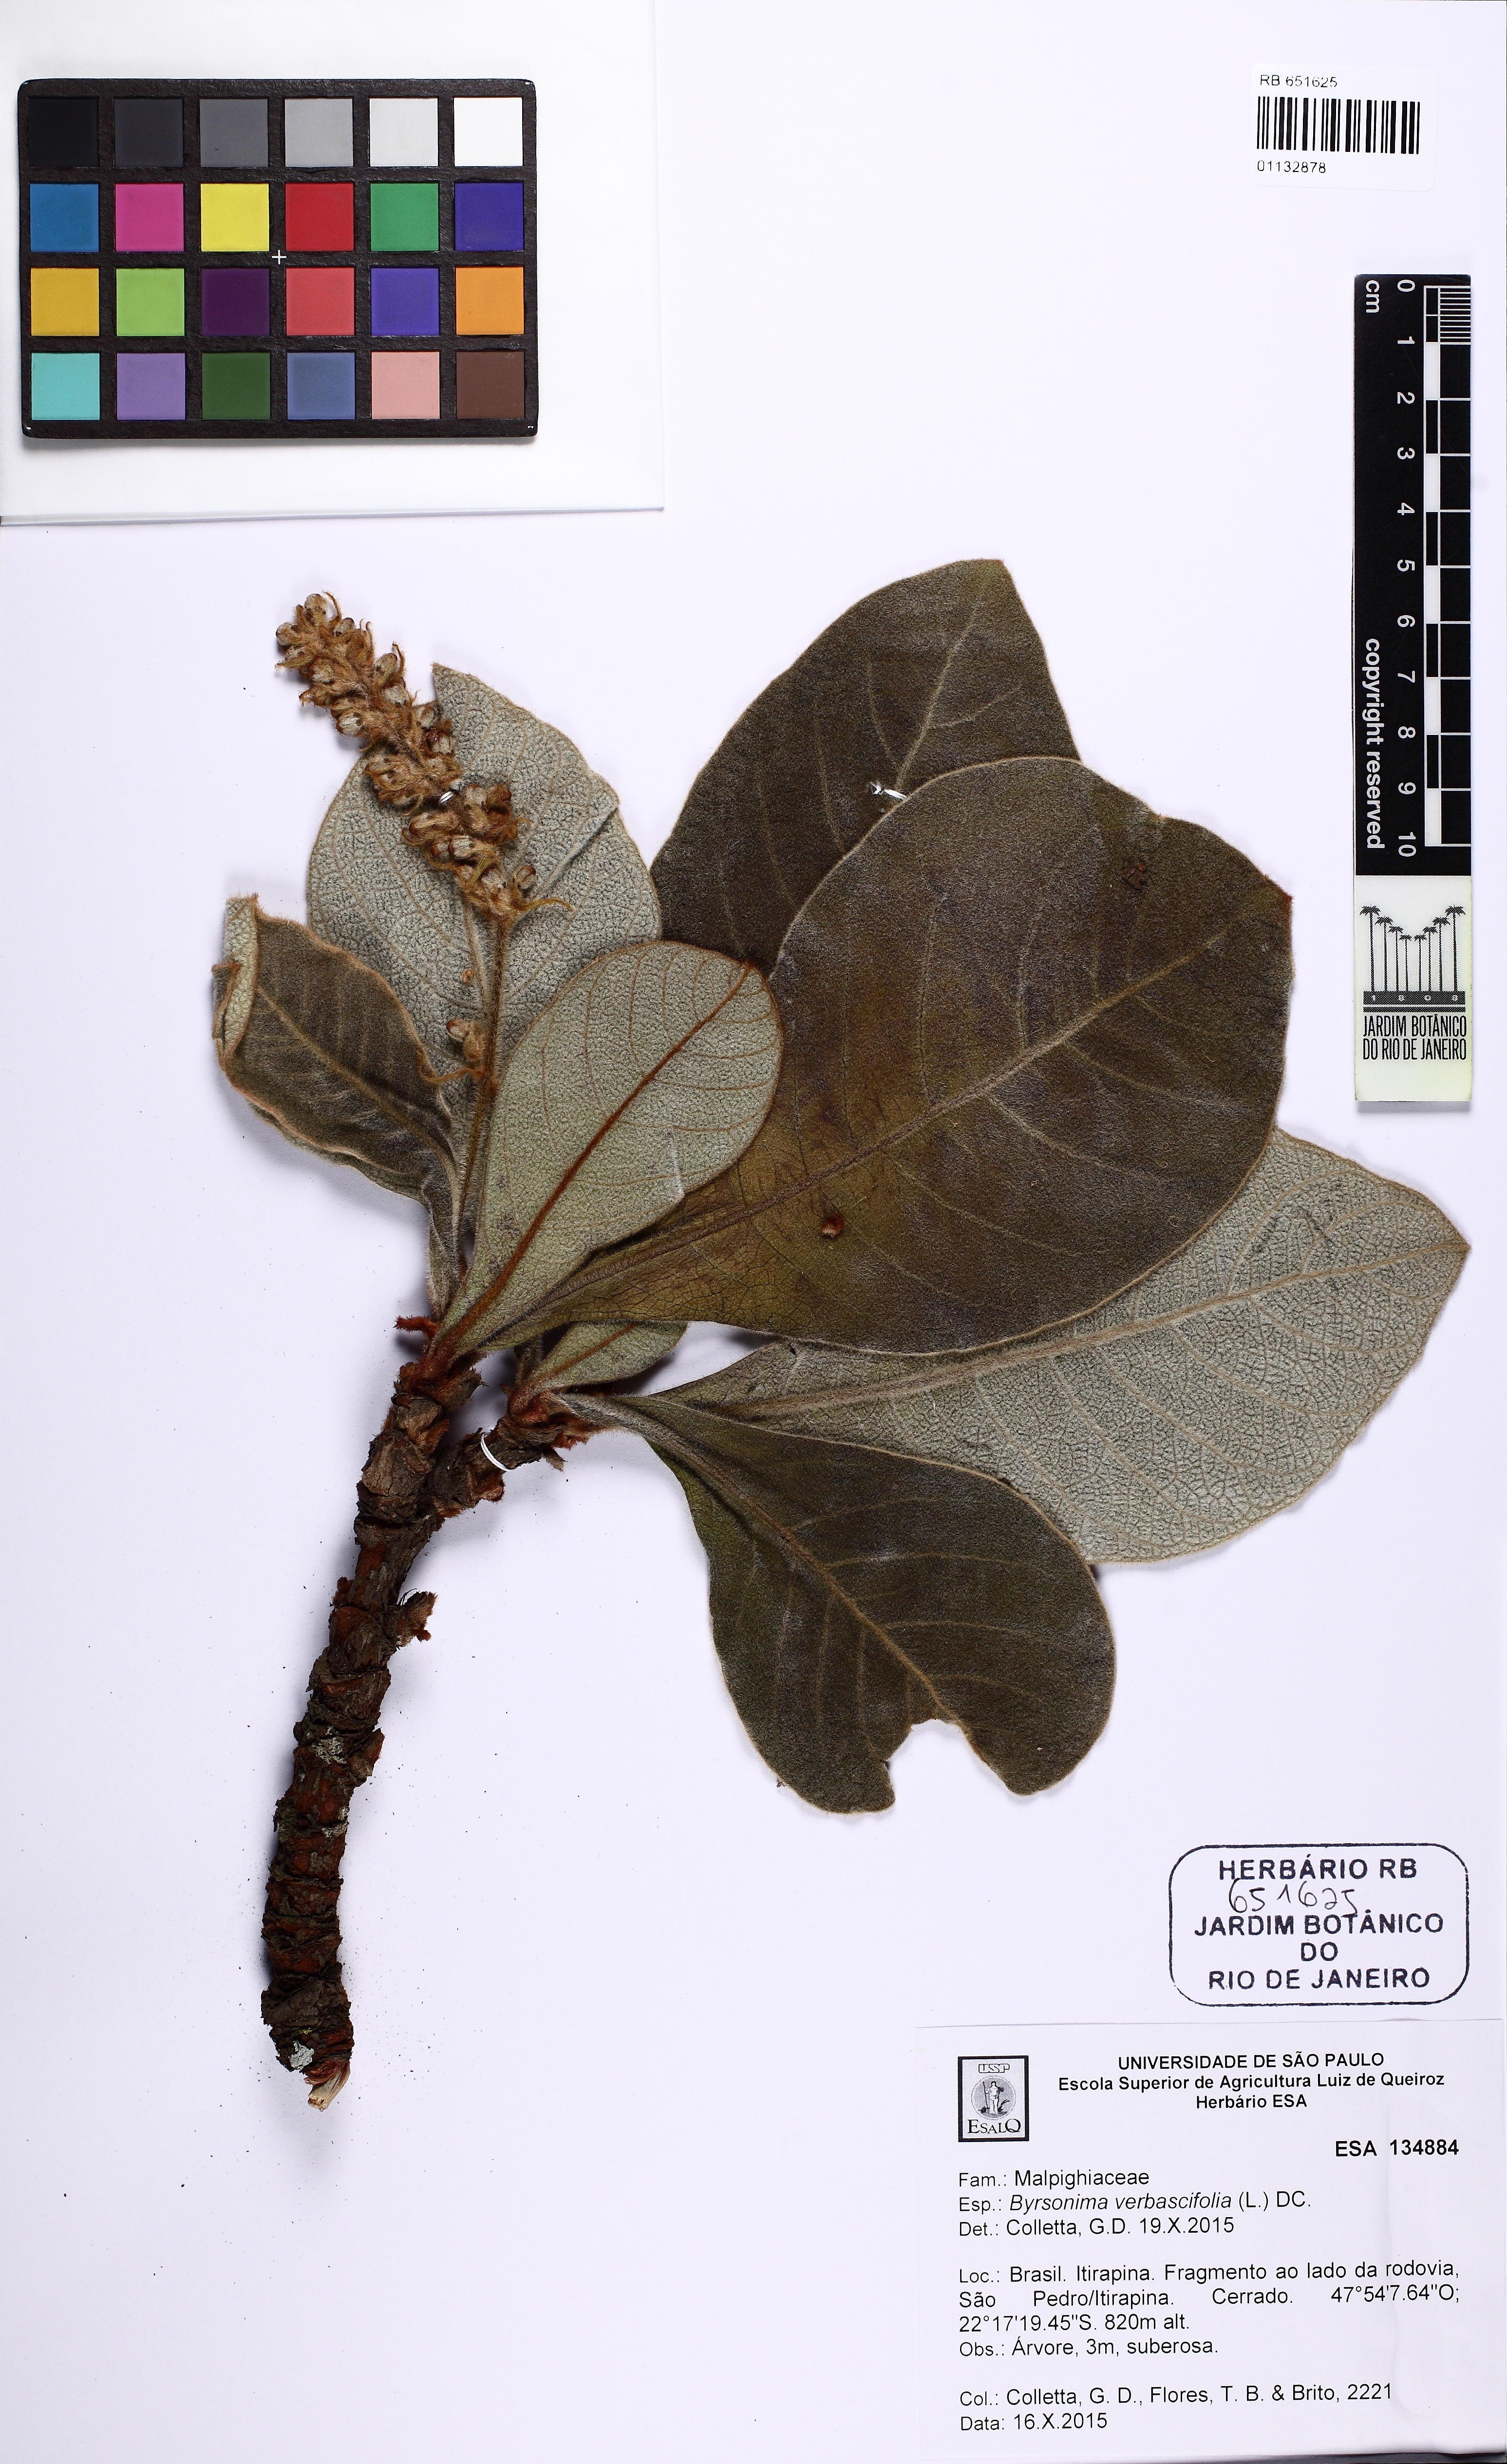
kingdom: Plantae
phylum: Tracheophyta
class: Magnoliopsida
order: Malpighiales
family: Malpighiaceae
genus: Byrsonima
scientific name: Byrsonima verbascifolia
